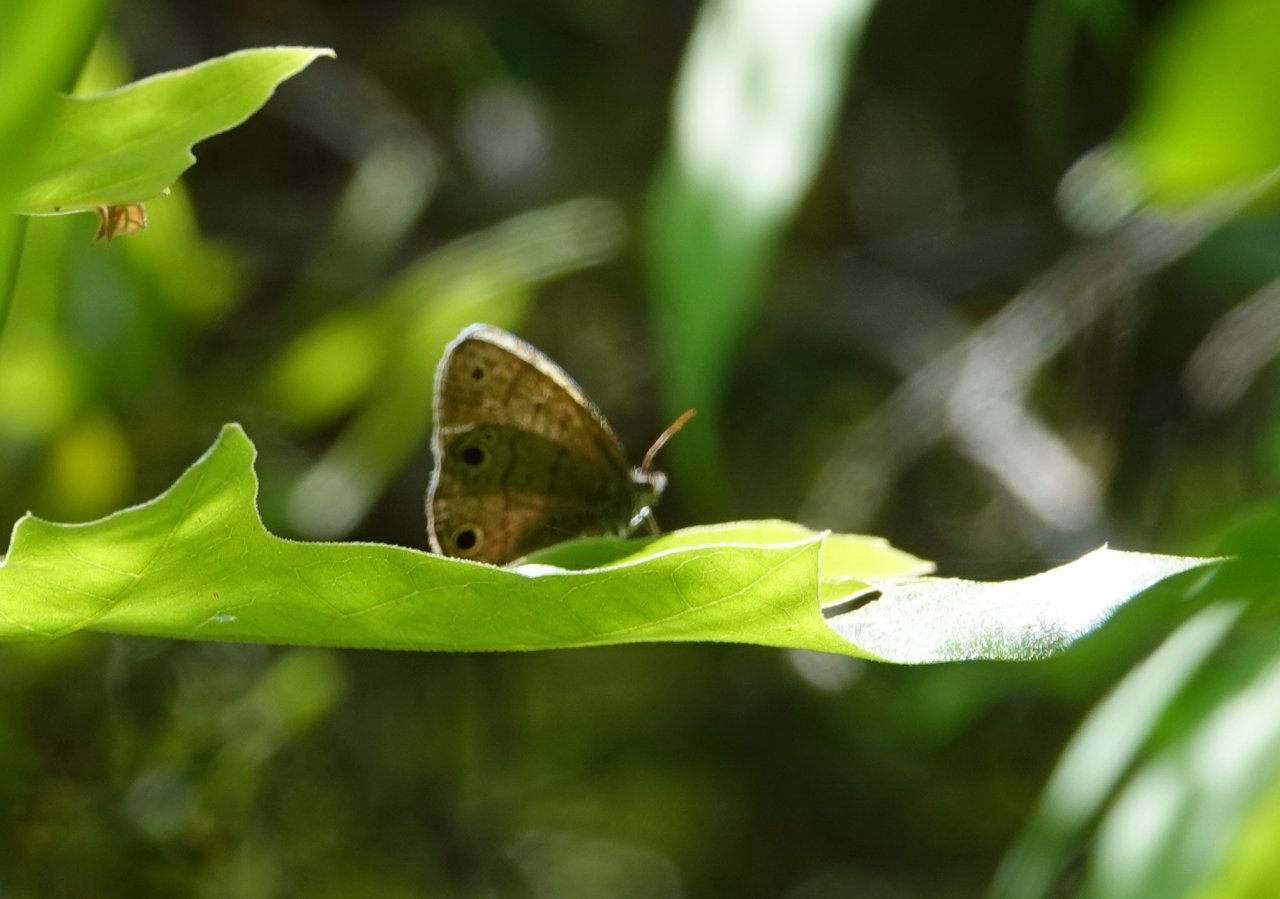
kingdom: Animalia
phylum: Arthropoda
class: Insecta
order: Lepidoptera
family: Nymphalidae
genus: Hermeuptychia
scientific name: Hermeuptychia hermes
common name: Carolina Satyr
